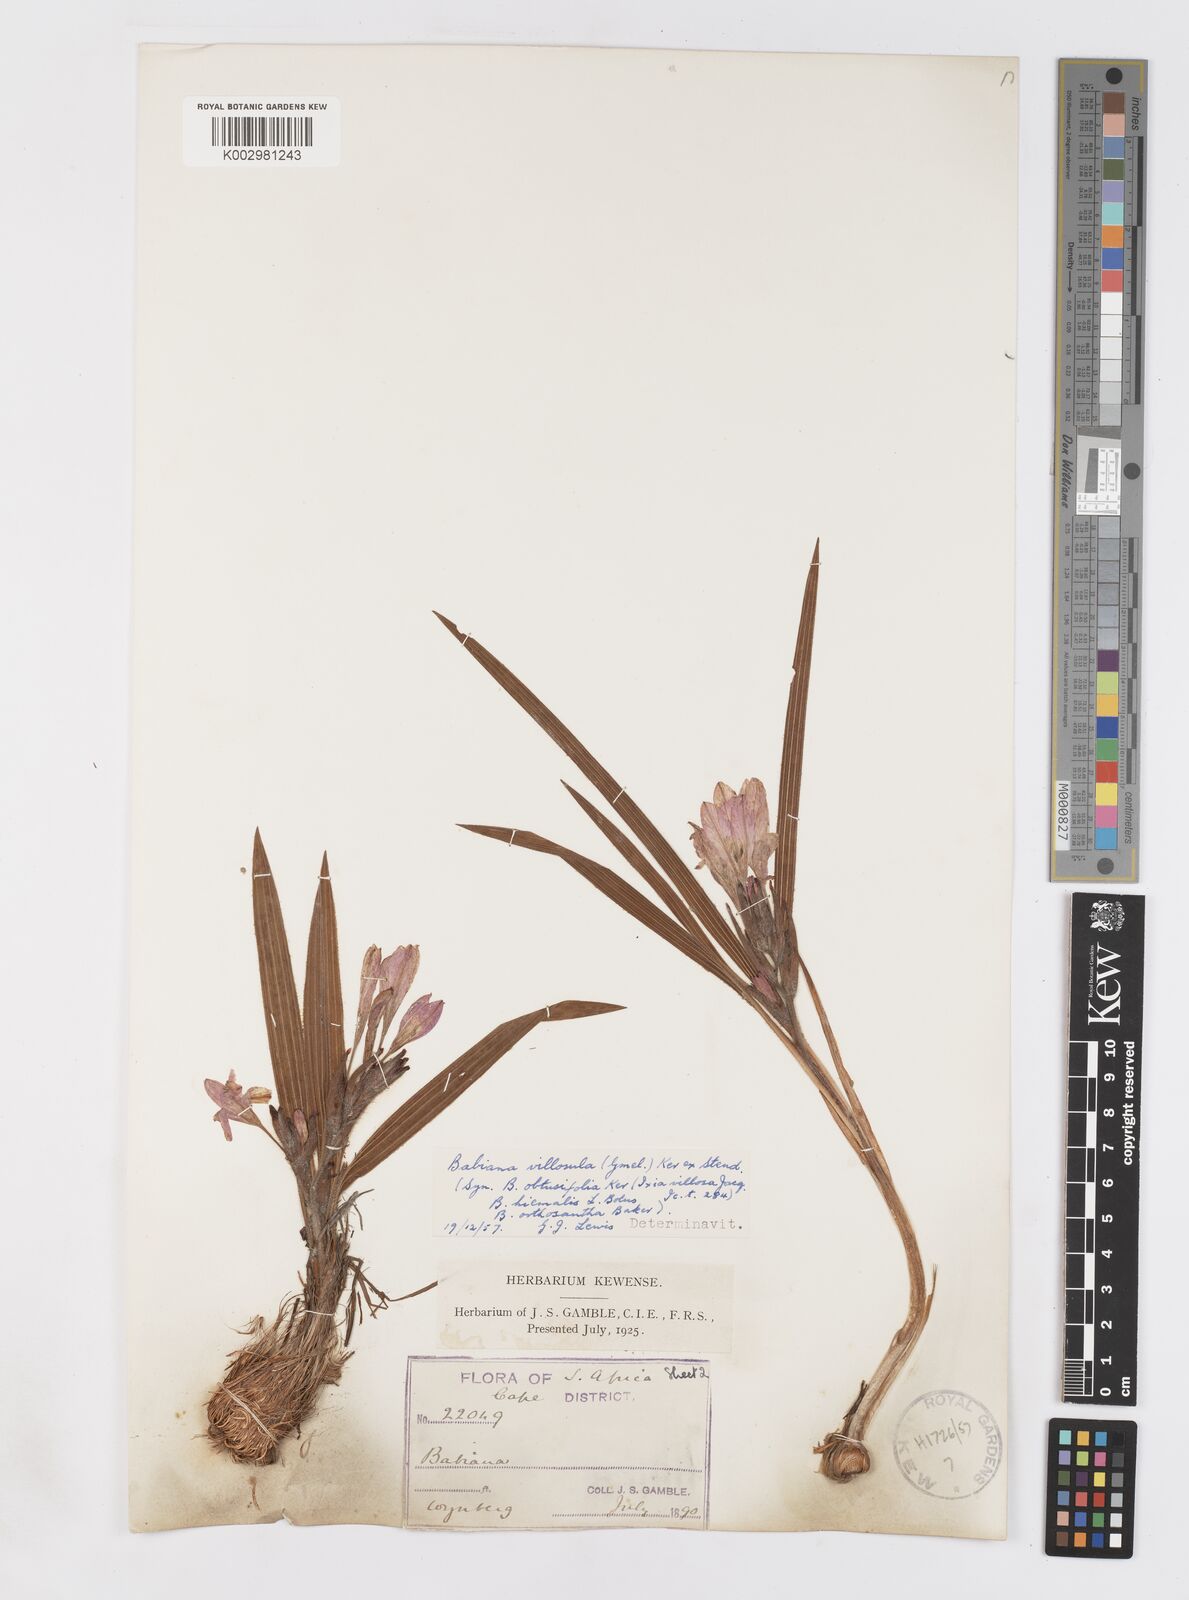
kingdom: Plantae
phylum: Tracheophyta
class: Liliopsida
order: Asparagales
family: Iridaceae
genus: Babiana
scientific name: Babiana villosula
